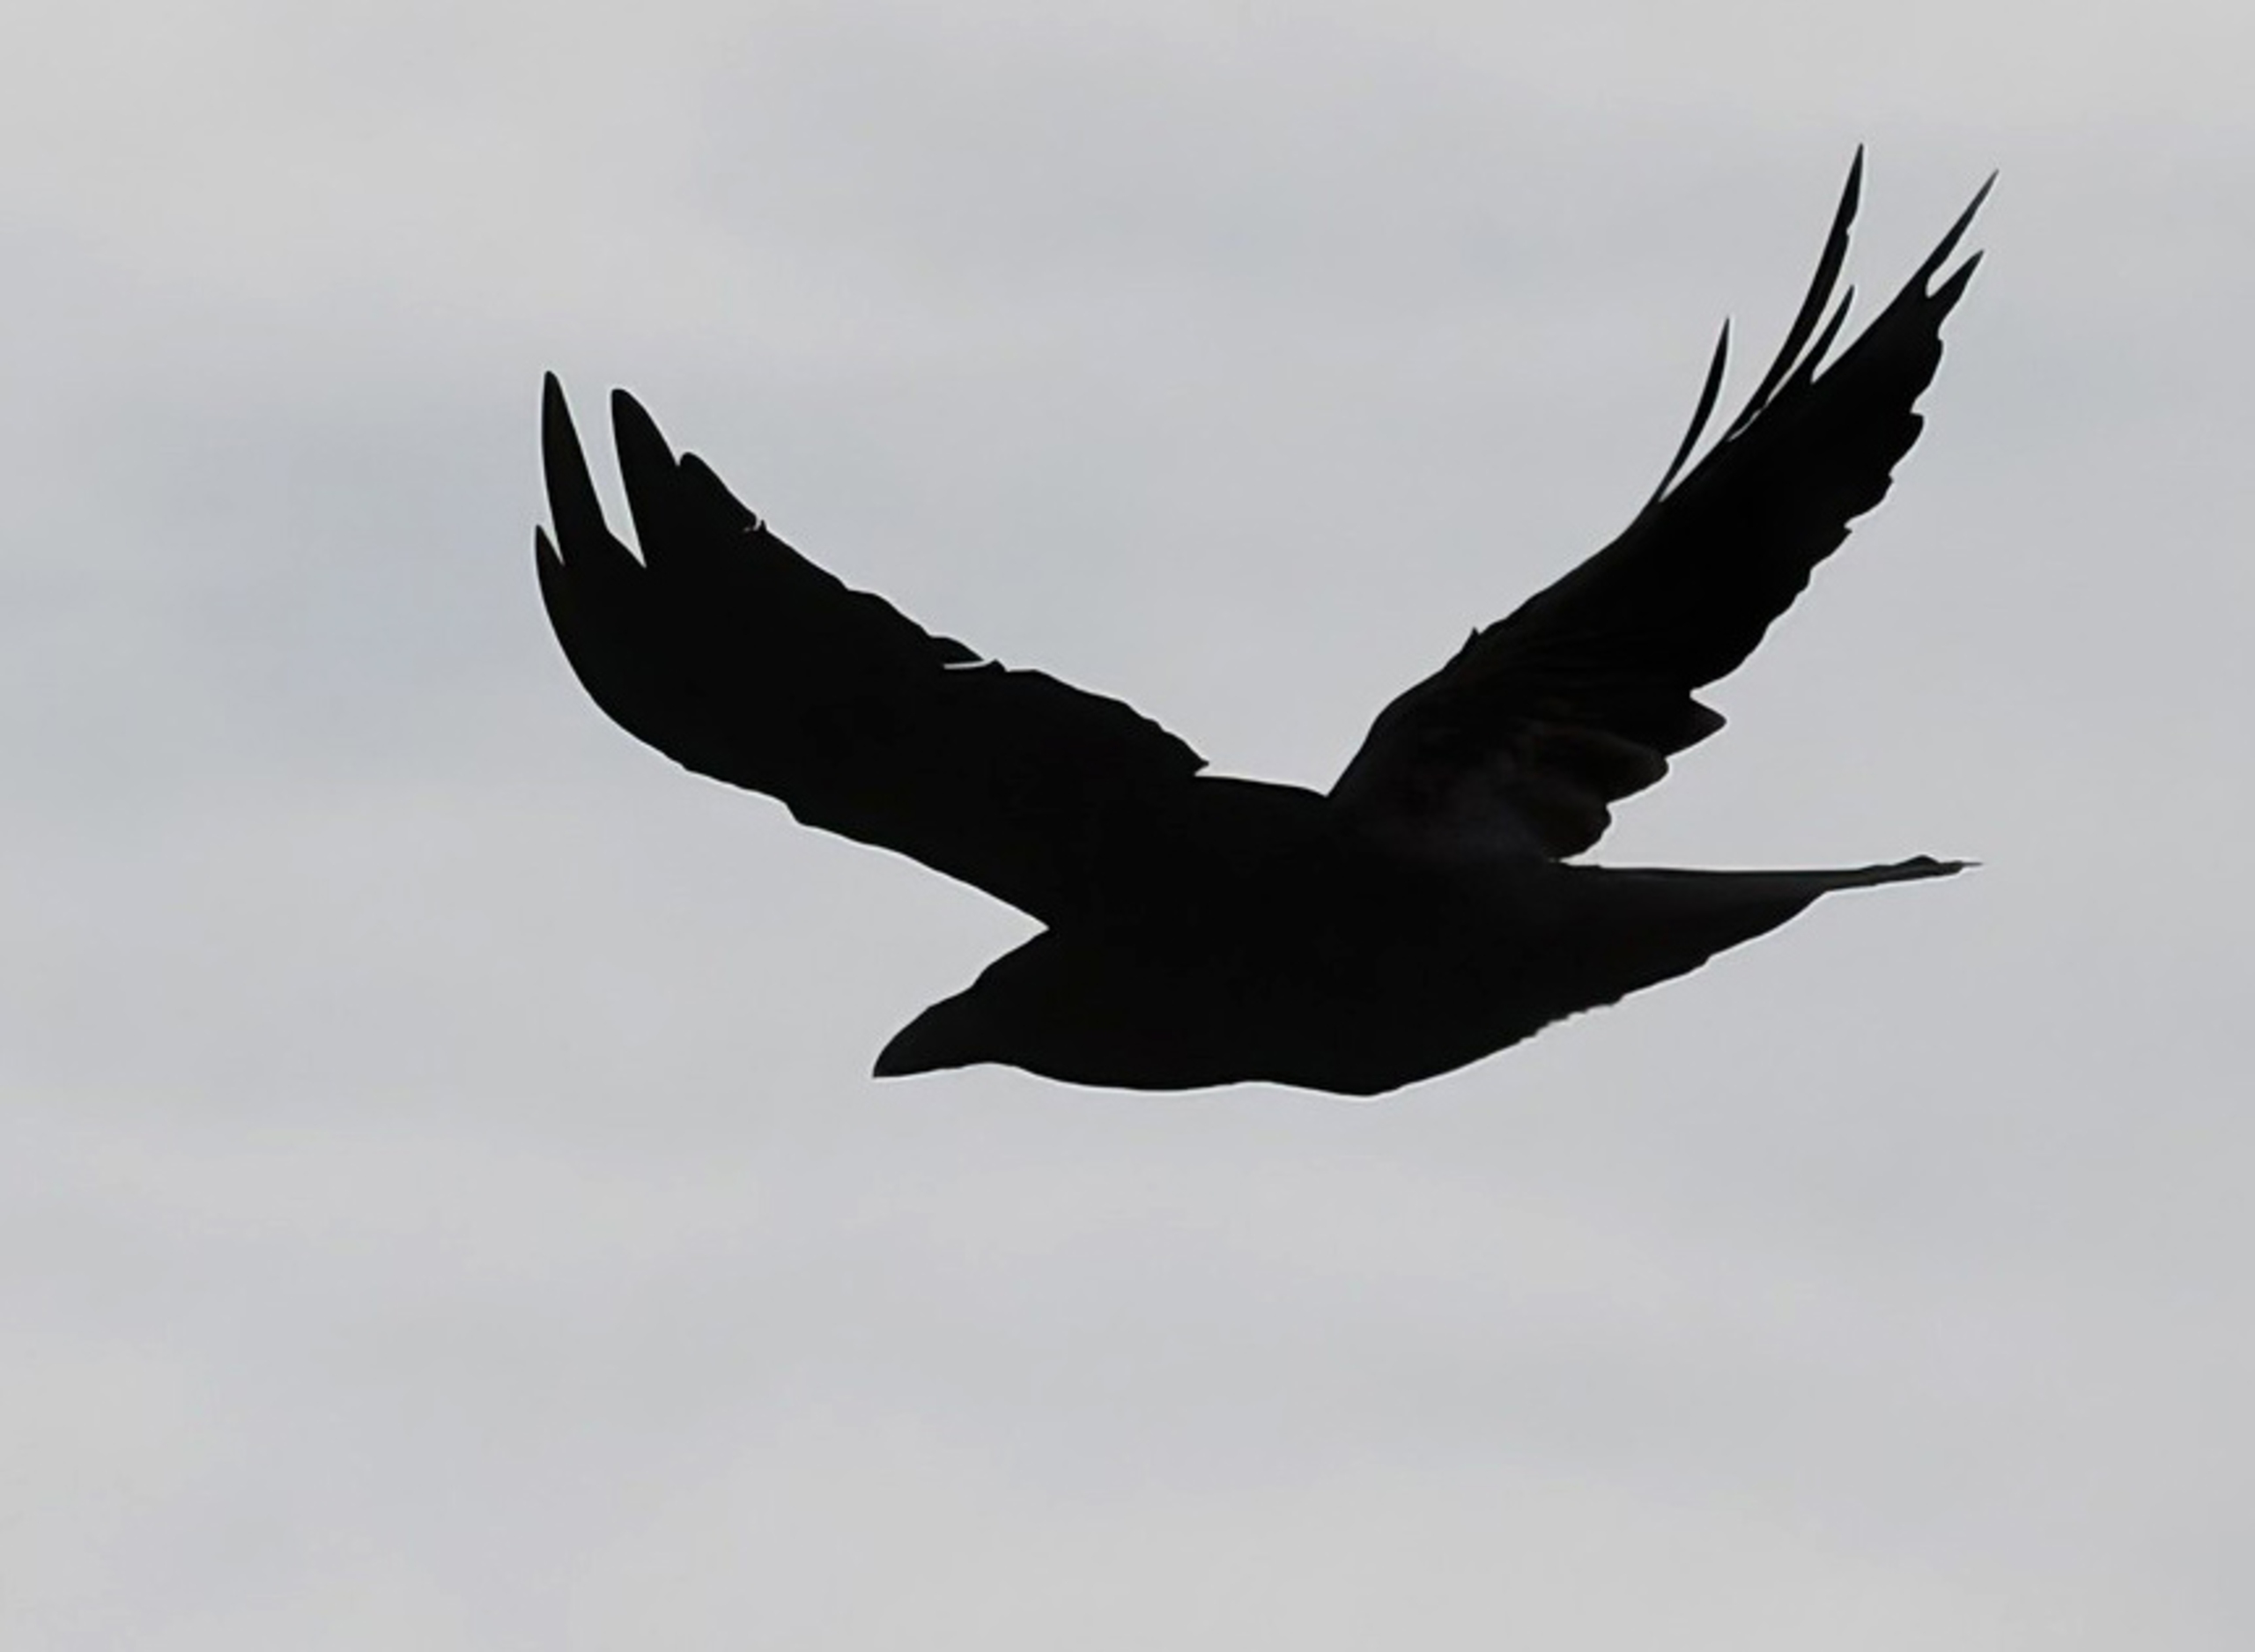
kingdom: Animalia
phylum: Chordata
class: Aves
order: Passeriformes
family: Corvidae
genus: Corvus
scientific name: Corvus corax
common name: Ravn
